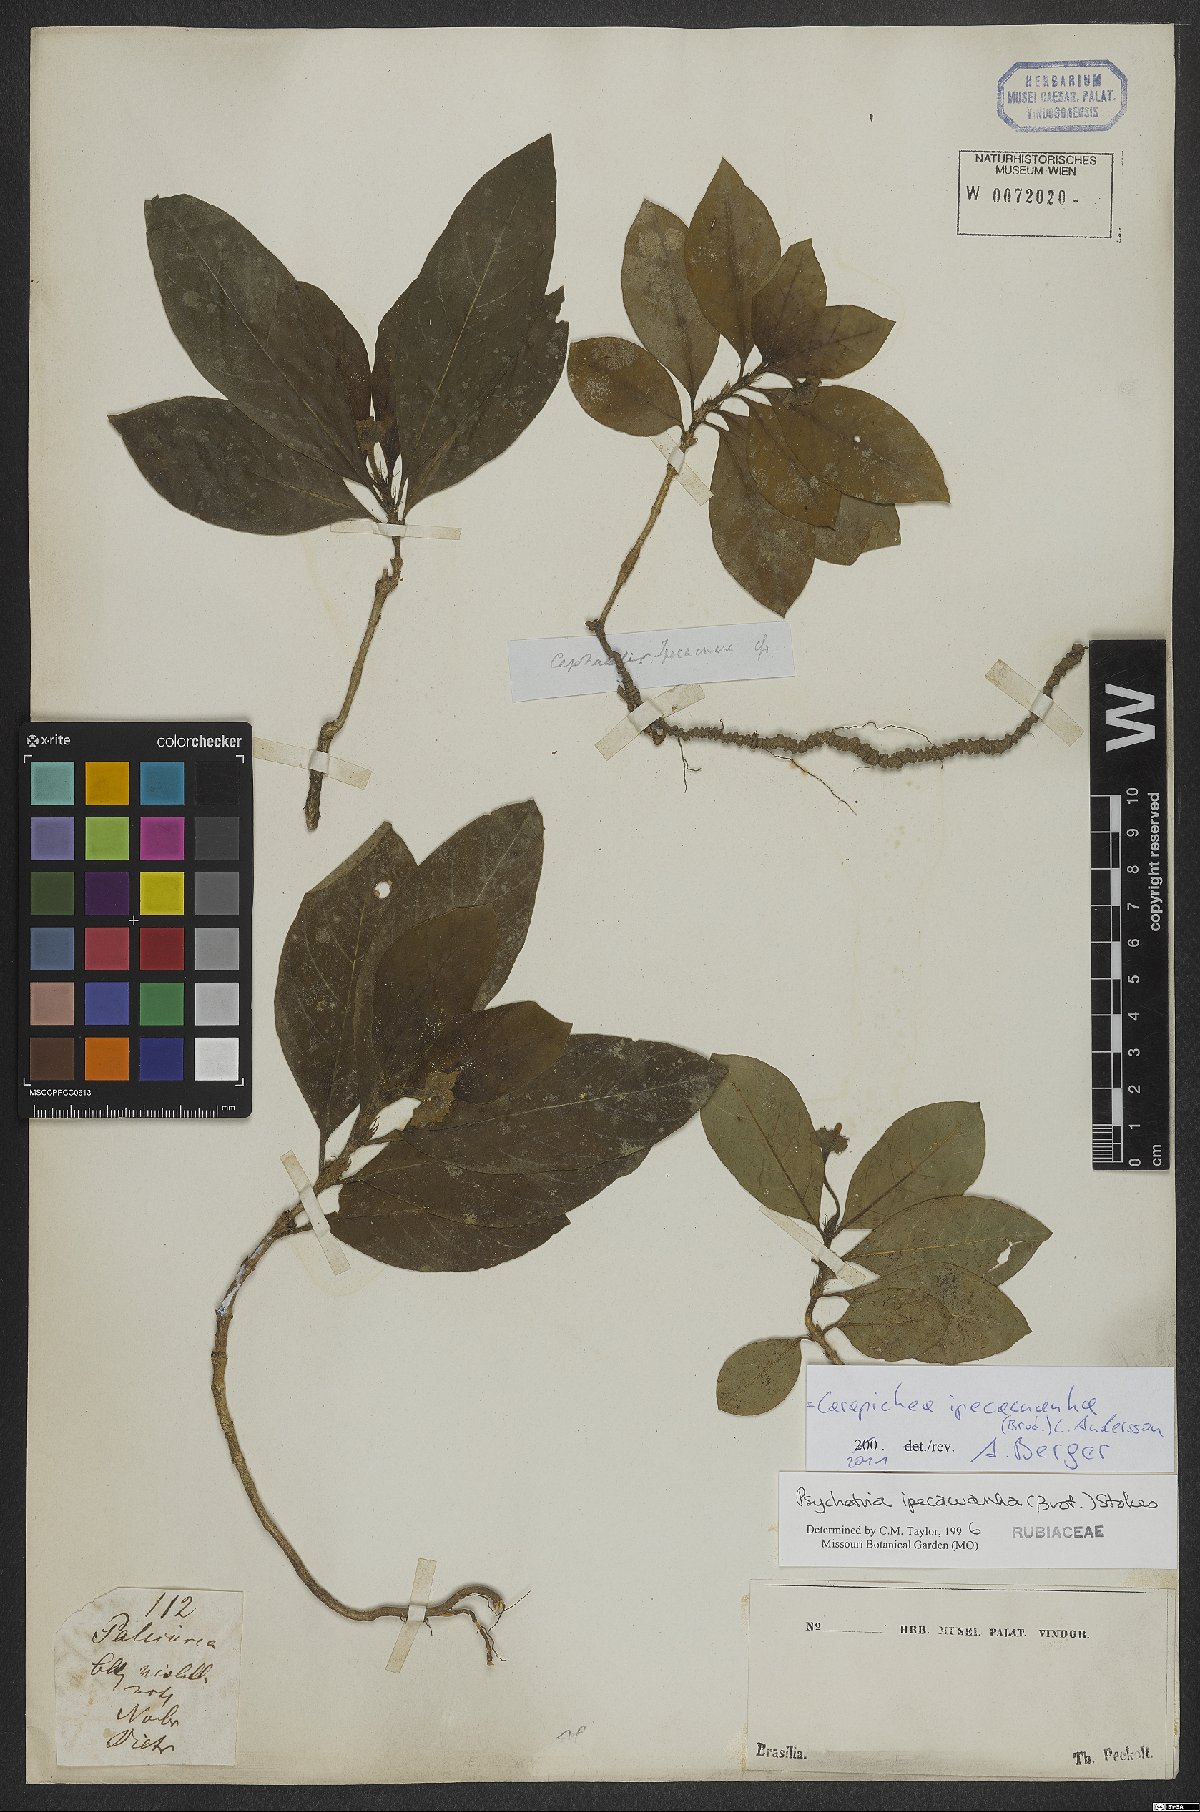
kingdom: Plantae
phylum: Tracheophyta
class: Magnoliopsida
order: Gentianales
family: Rubiaceae
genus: Carapichea
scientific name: Carapichea ipecacuanha
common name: Ipecac
